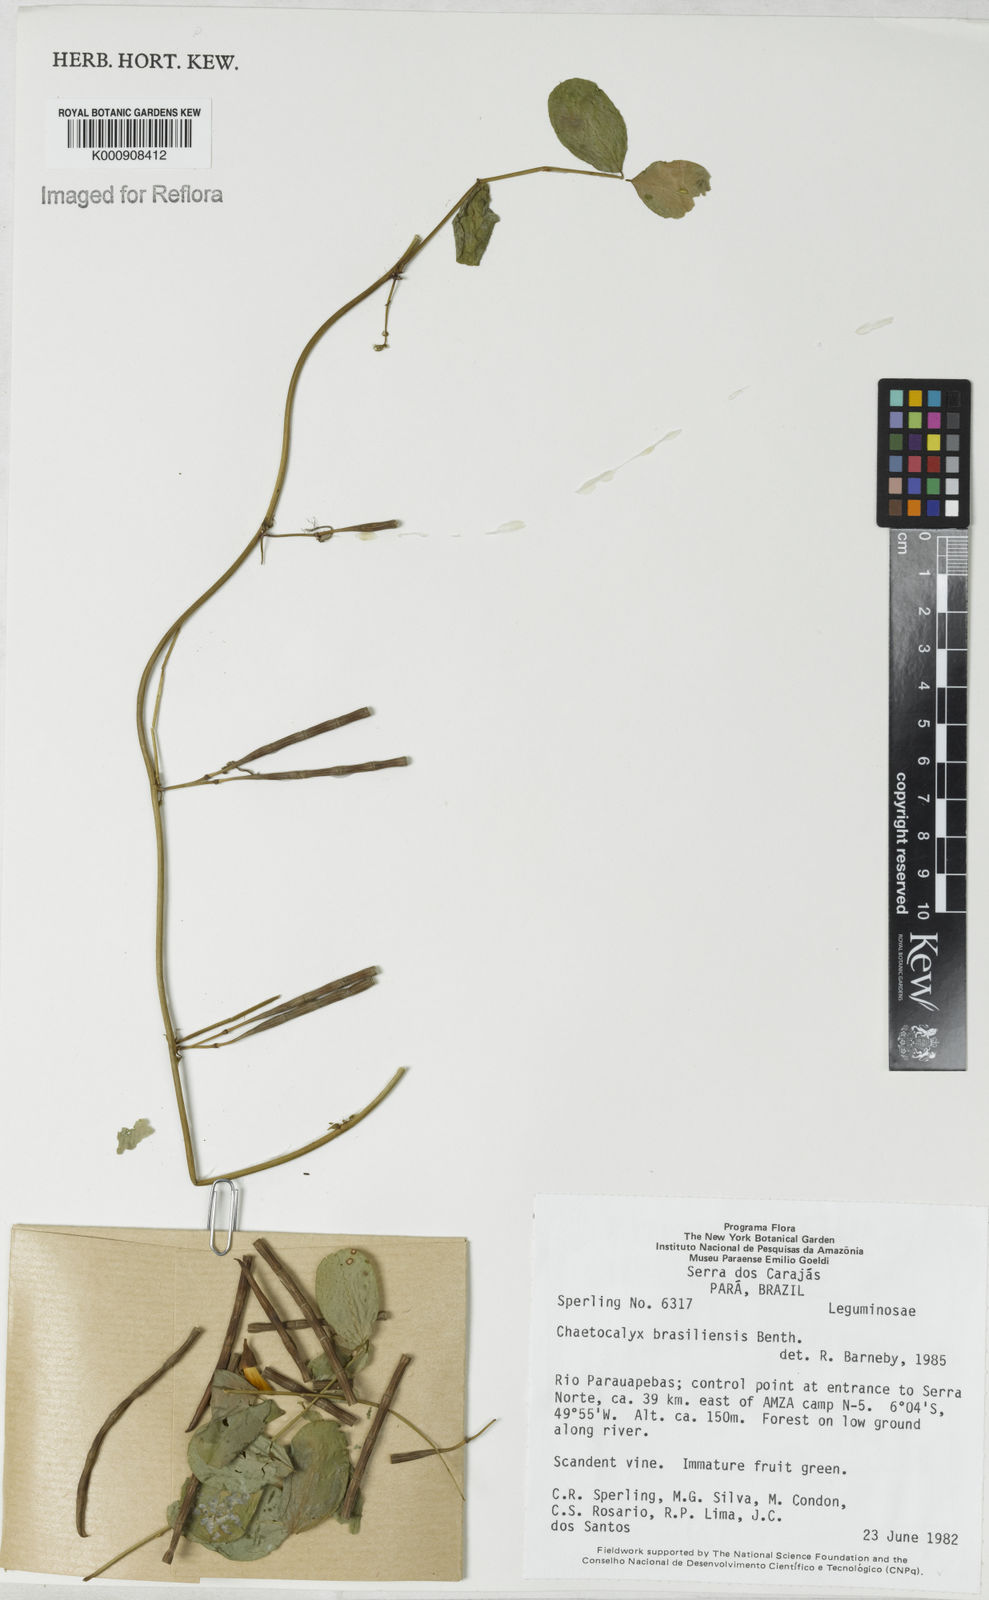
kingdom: Plantae
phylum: Tracheophyta
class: Magnoliopsida
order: Fabales
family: Fabaceae
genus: Nissolia
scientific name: Nissolia brasiliensis
